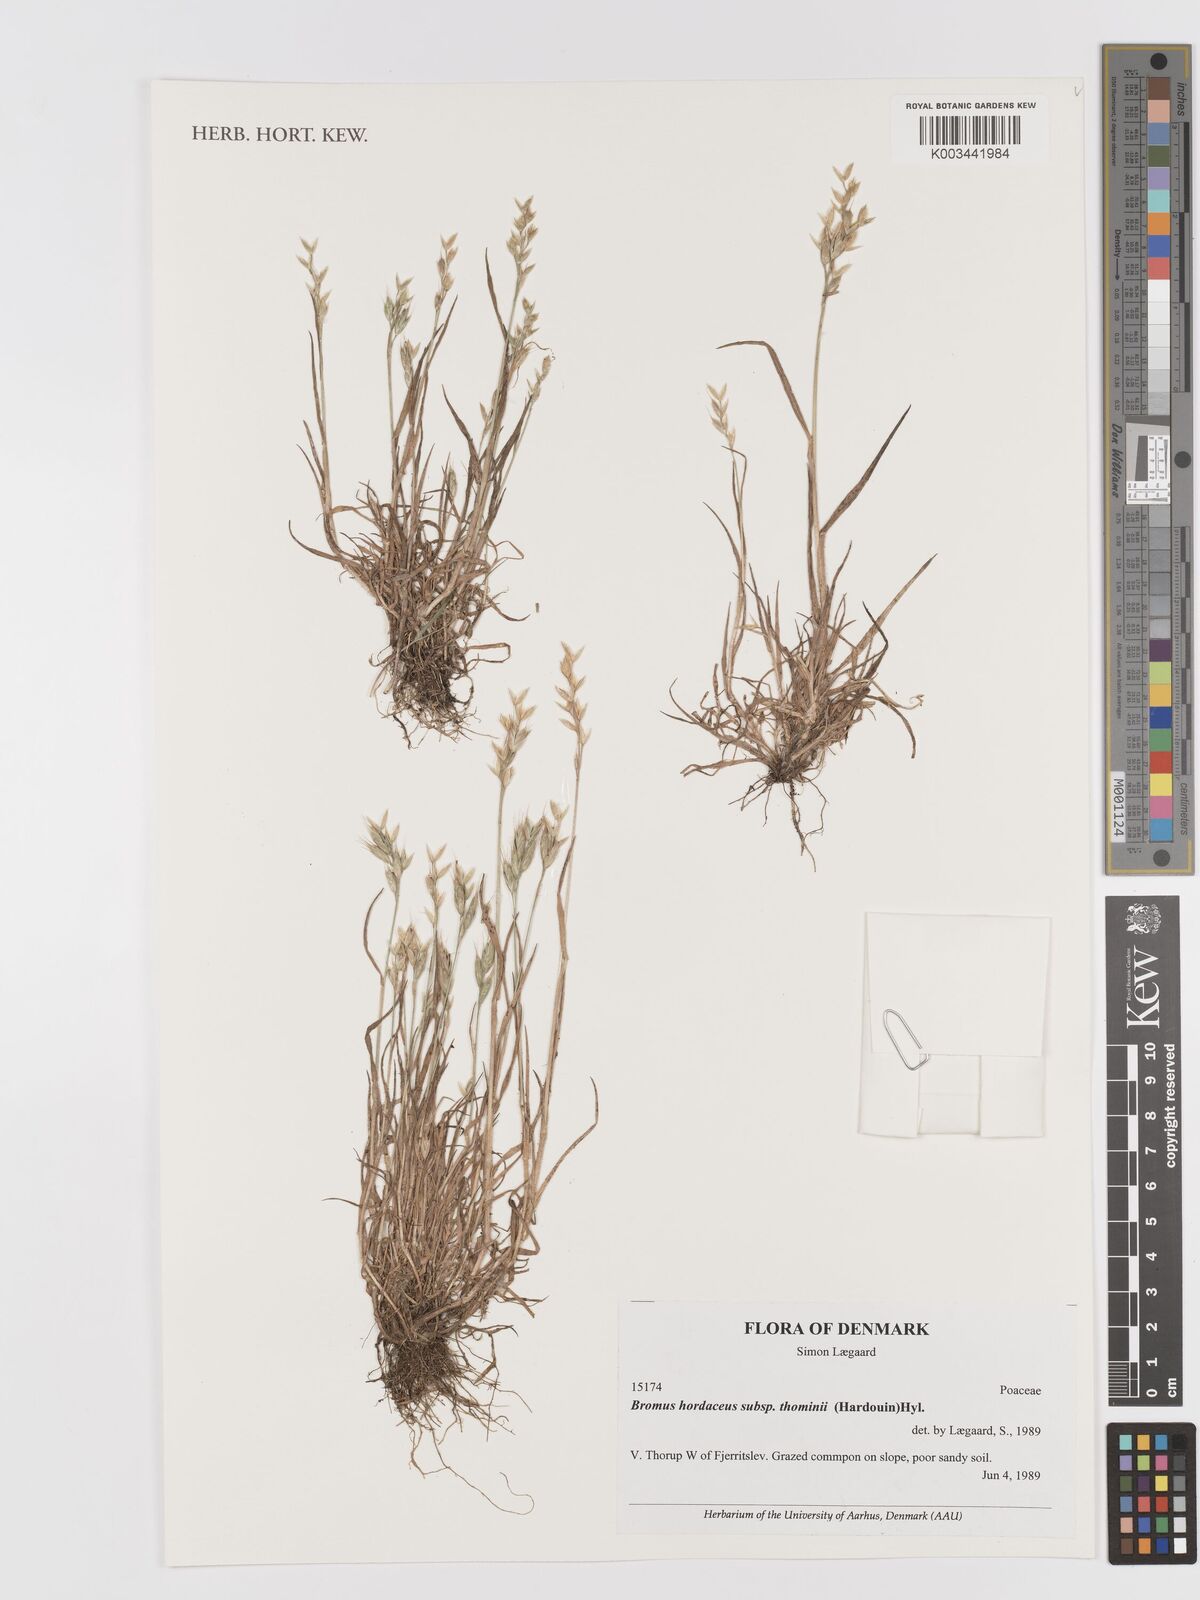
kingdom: Plantae
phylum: Tracheophyta
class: Liliopsida
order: Poales
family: Poaceae
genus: Bromus
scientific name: Bromus hordeaceus
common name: Soft brome
